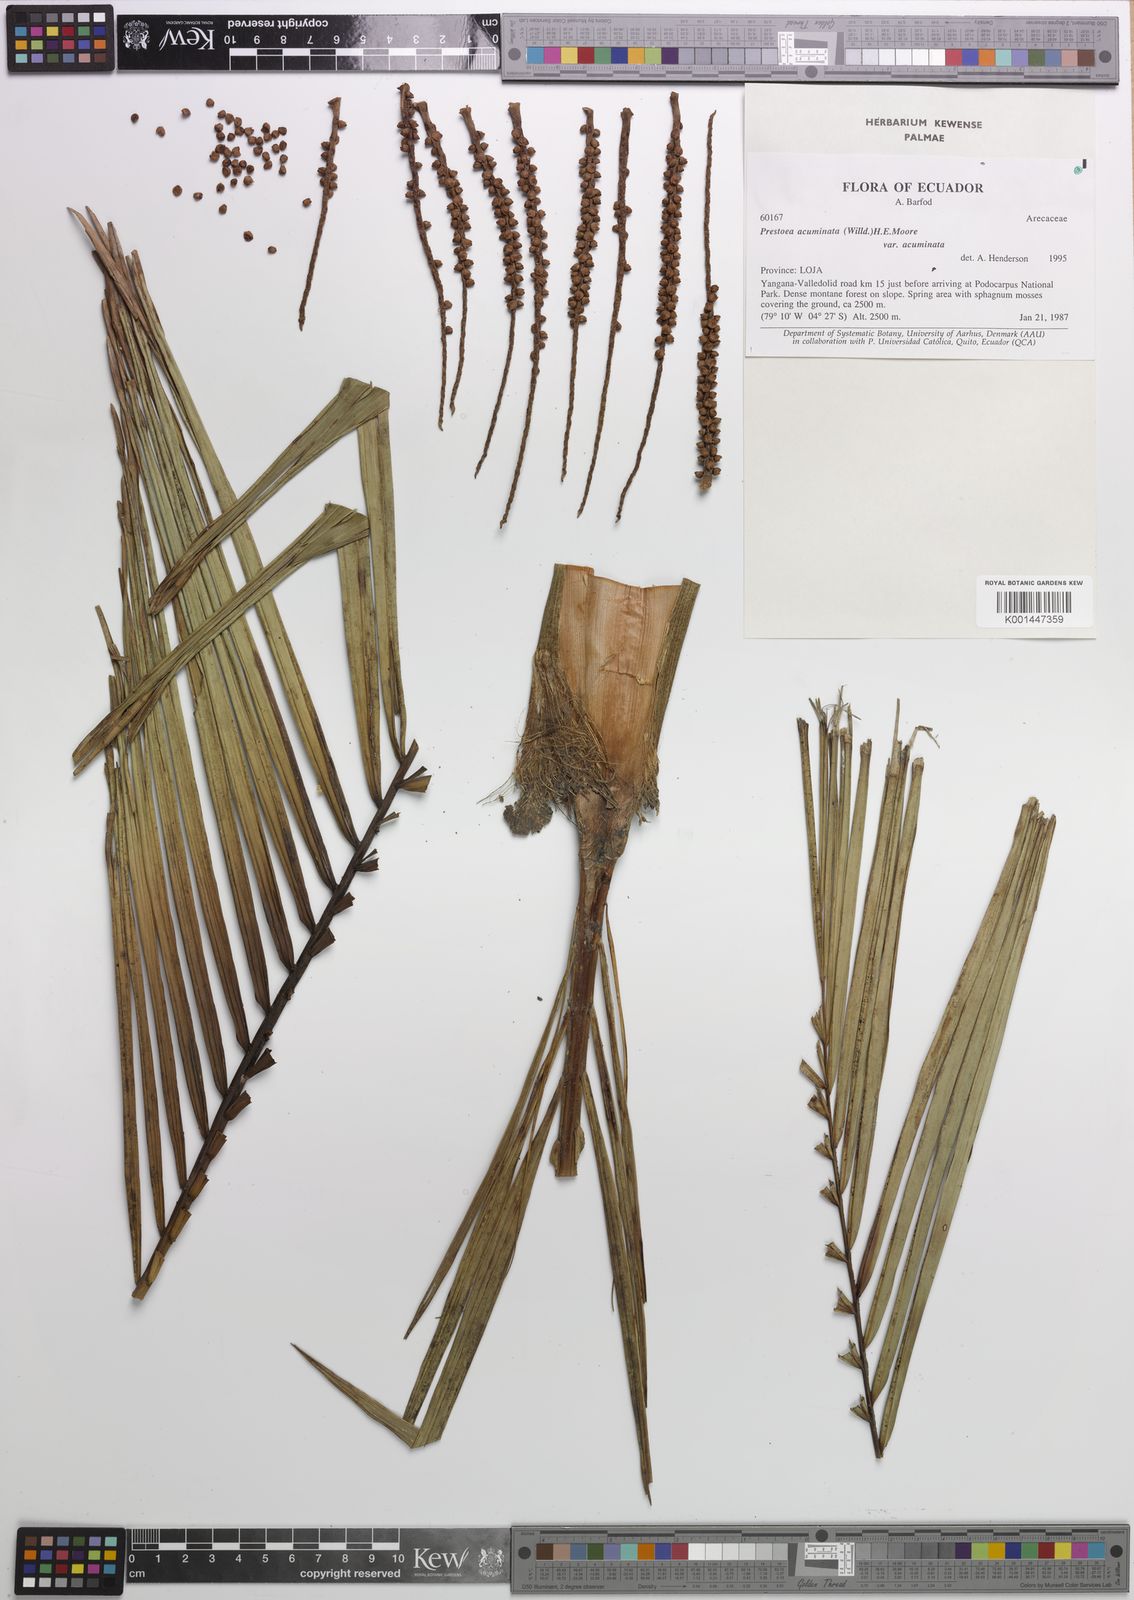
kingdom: Plantae
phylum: Tracheophyta
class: Liliopsida
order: Arecales
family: Arecaceae
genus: Prestoea
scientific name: Prestoea acuminata
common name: Sierran palm
